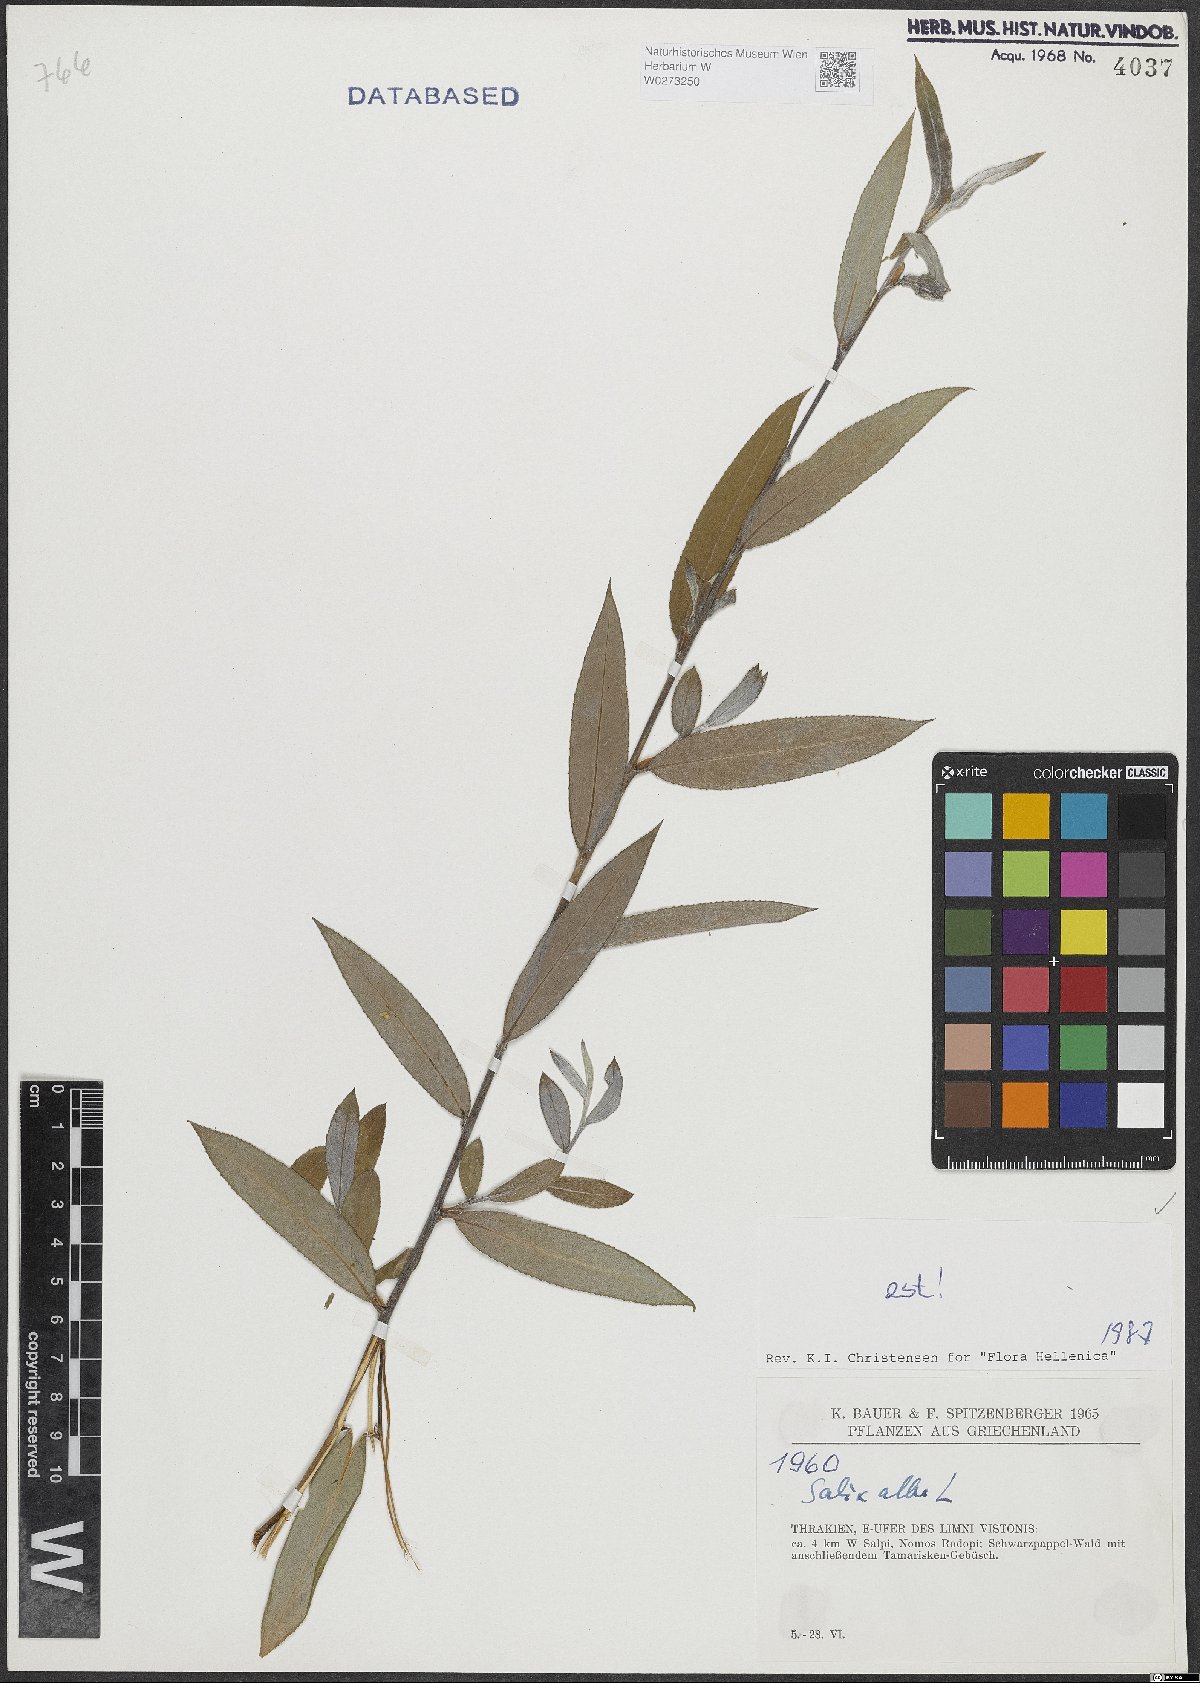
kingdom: Plantae
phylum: Tracheophyta
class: Magnoliopsida
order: Malpighiales
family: Salicaceae
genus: Salix
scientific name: Salix alba
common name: White willow
